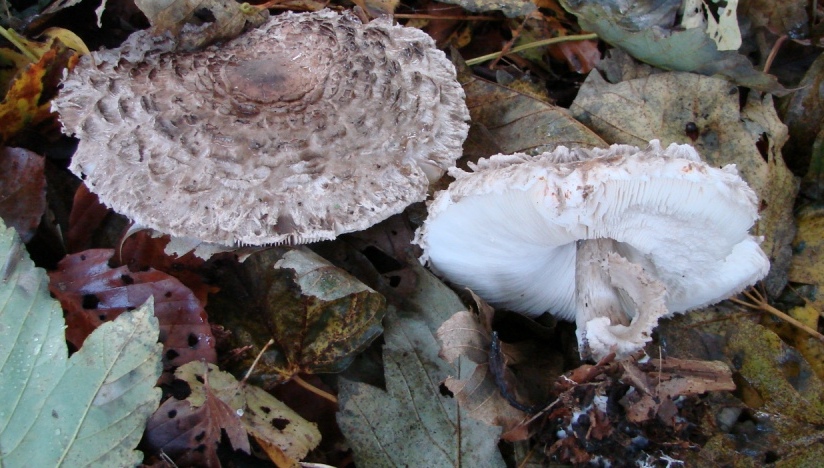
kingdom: Fungi
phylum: Basidiomycota
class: Agaricomycetes
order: Agaricales
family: Agaricaceae
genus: Chlorophyllum
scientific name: Chlorophyllum olivieri
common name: almindelig rabarberhat
